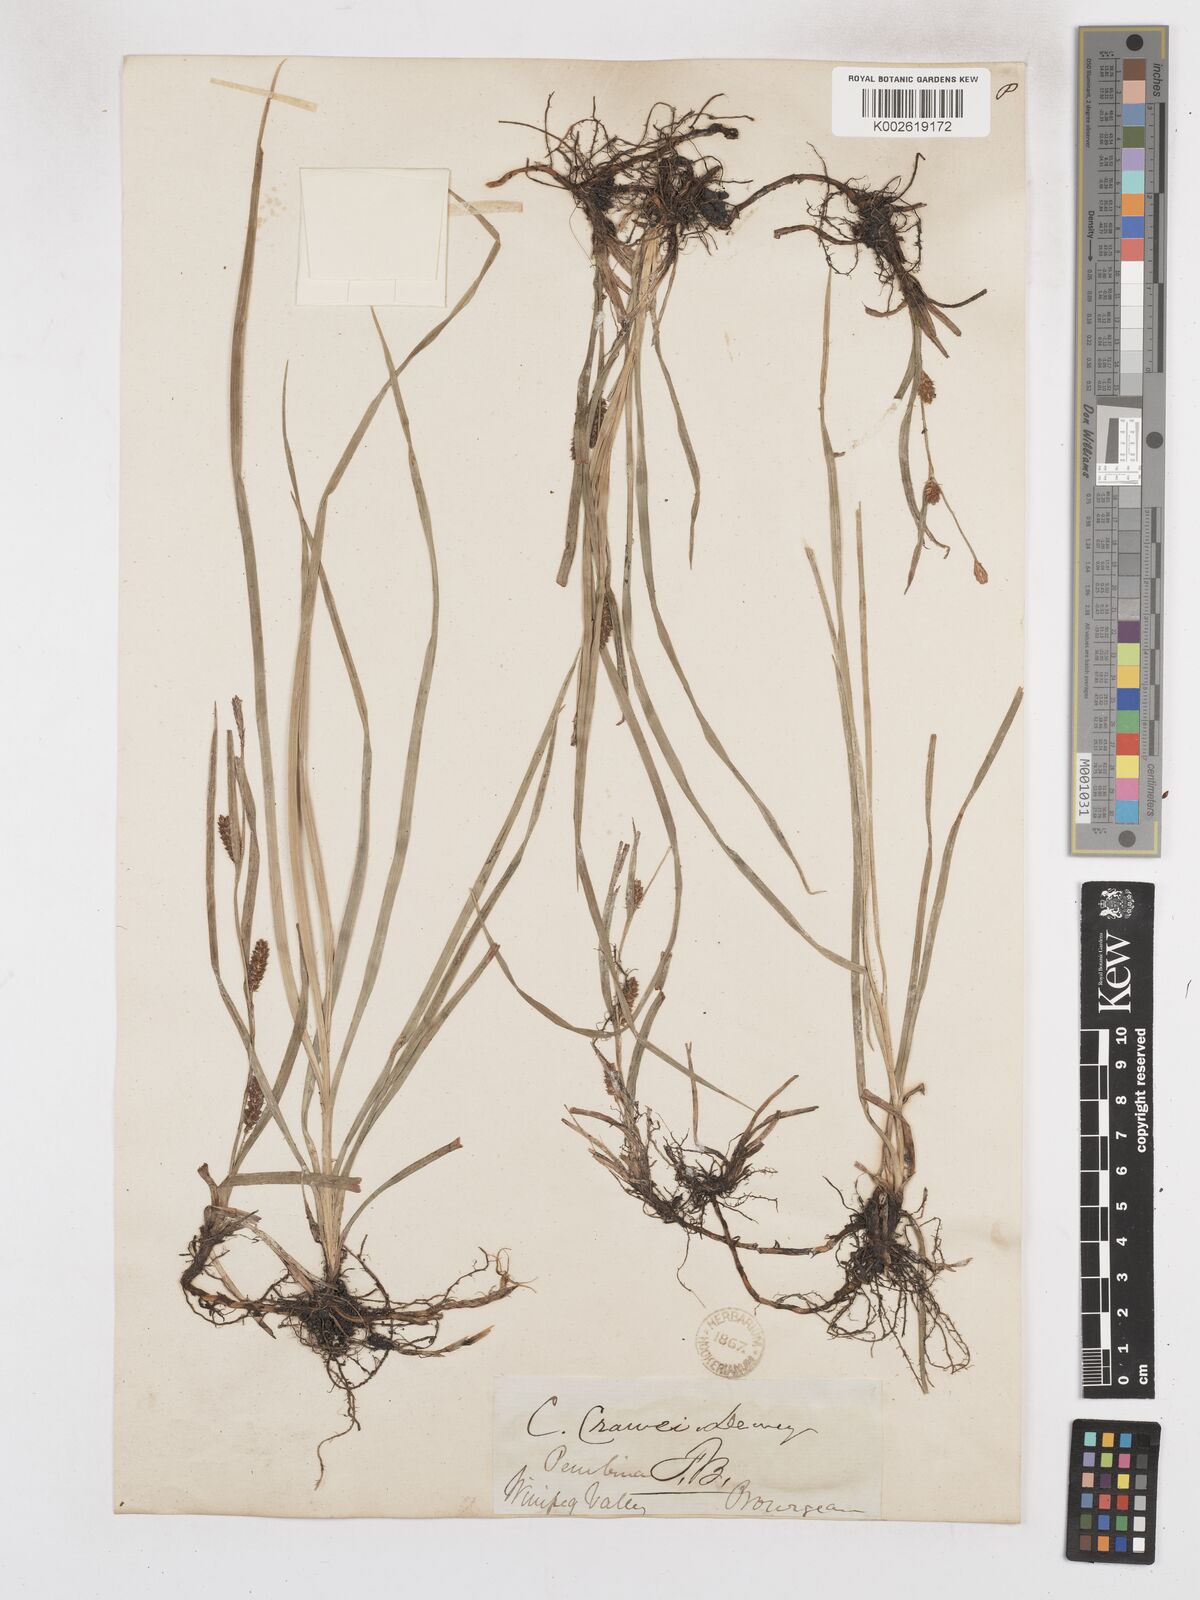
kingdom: Plantae
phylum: Tracheophyta
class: Liliopsida
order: Poales
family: Cyperaceae
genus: Carex
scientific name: Carex crawei
